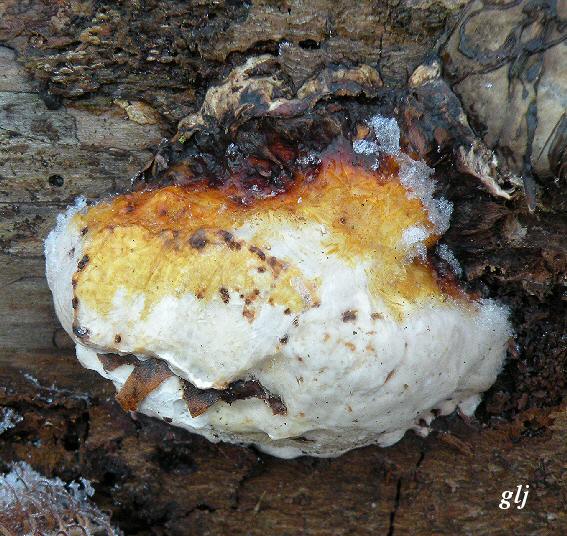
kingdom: Fungi
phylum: Basidiomycota
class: Agaricomycetes
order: Polyporales
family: Fomitopsidaceae
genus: Fomitopsis
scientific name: Fomitopsis pinicola
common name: randbæltet hovporesvamp
